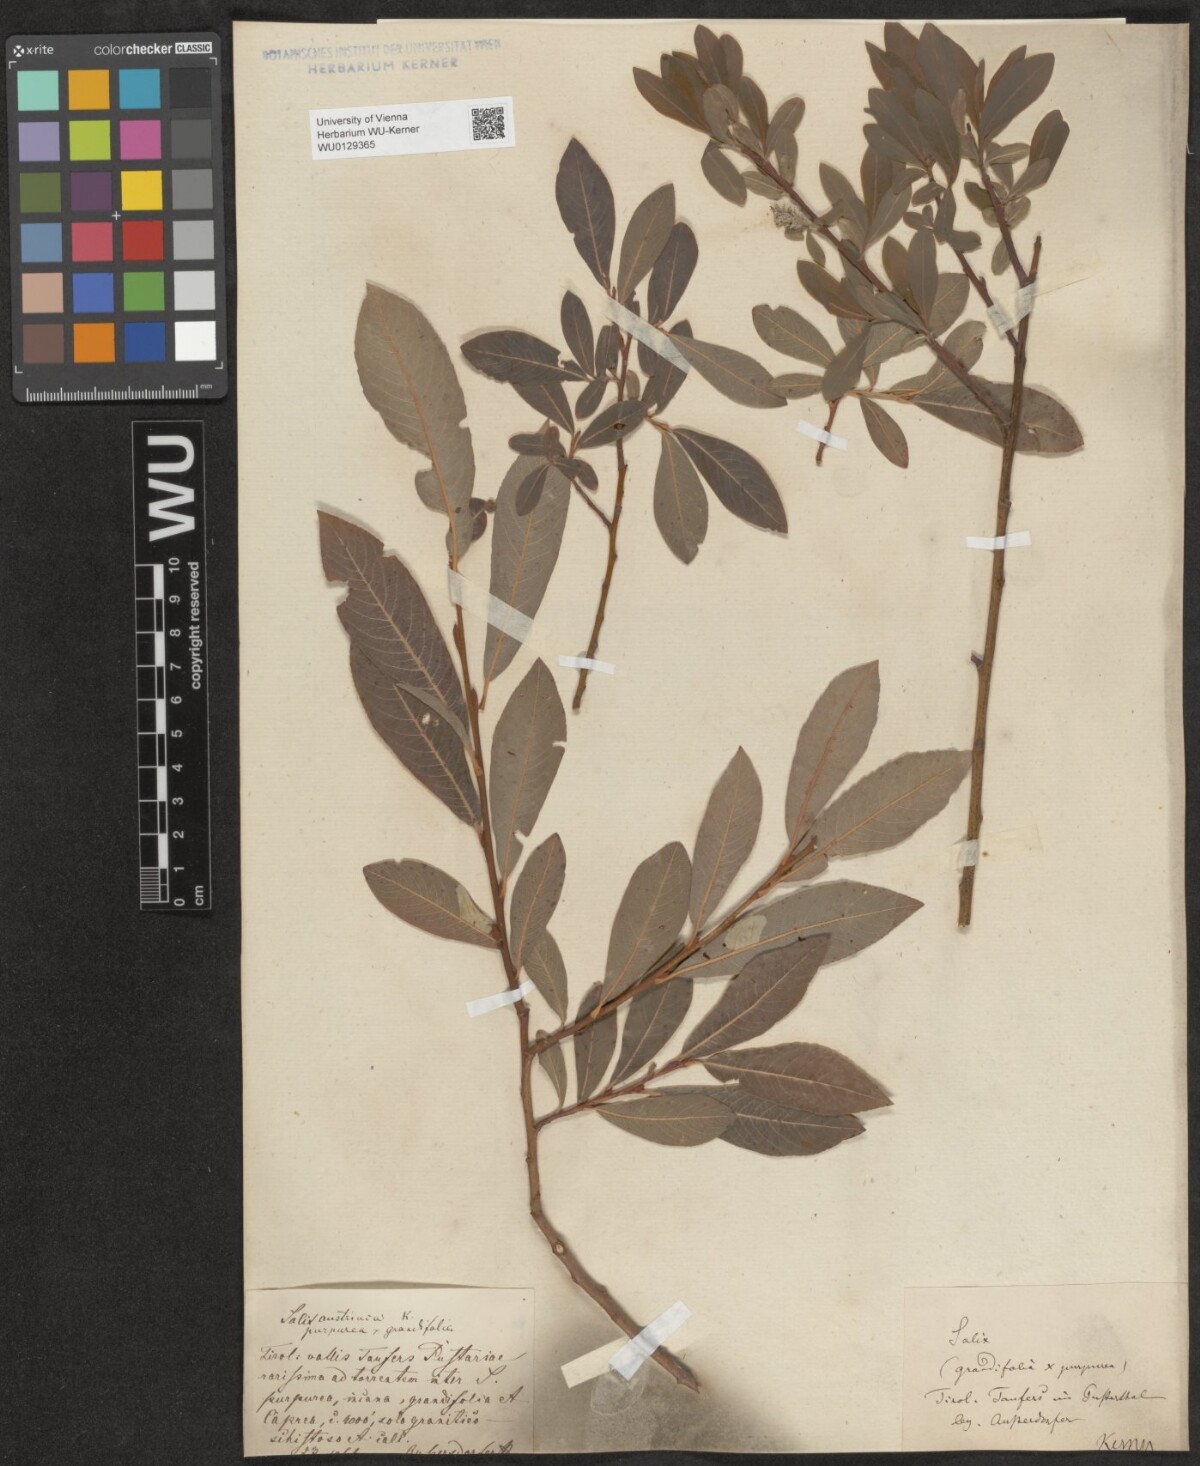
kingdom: Plantae
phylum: Tracheophyta
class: Magnoliopsida
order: Malpighiales
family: Salicaceae
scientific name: Salicaceae
